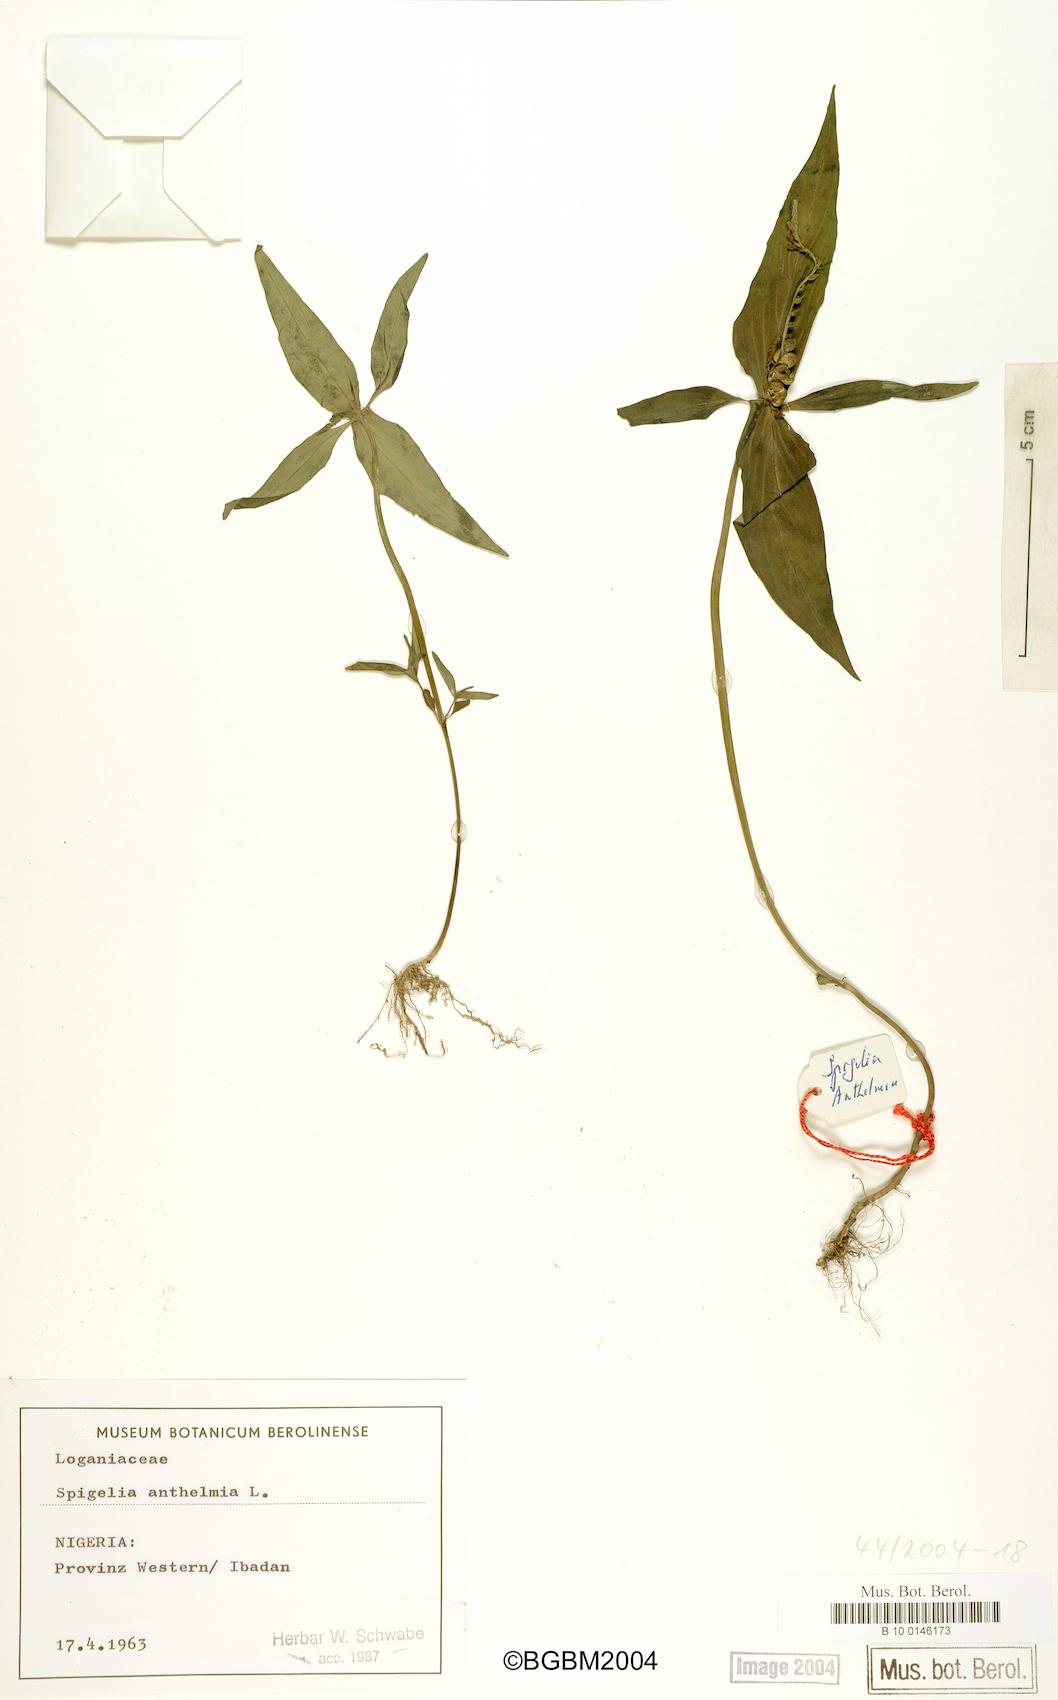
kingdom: Plantae
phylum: Tracheophyta
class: Magnoliopsida
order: Gentianales
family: Loganiaceae
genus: Spigelia
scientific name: Spigelia anthelmia
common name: West indian-pink
